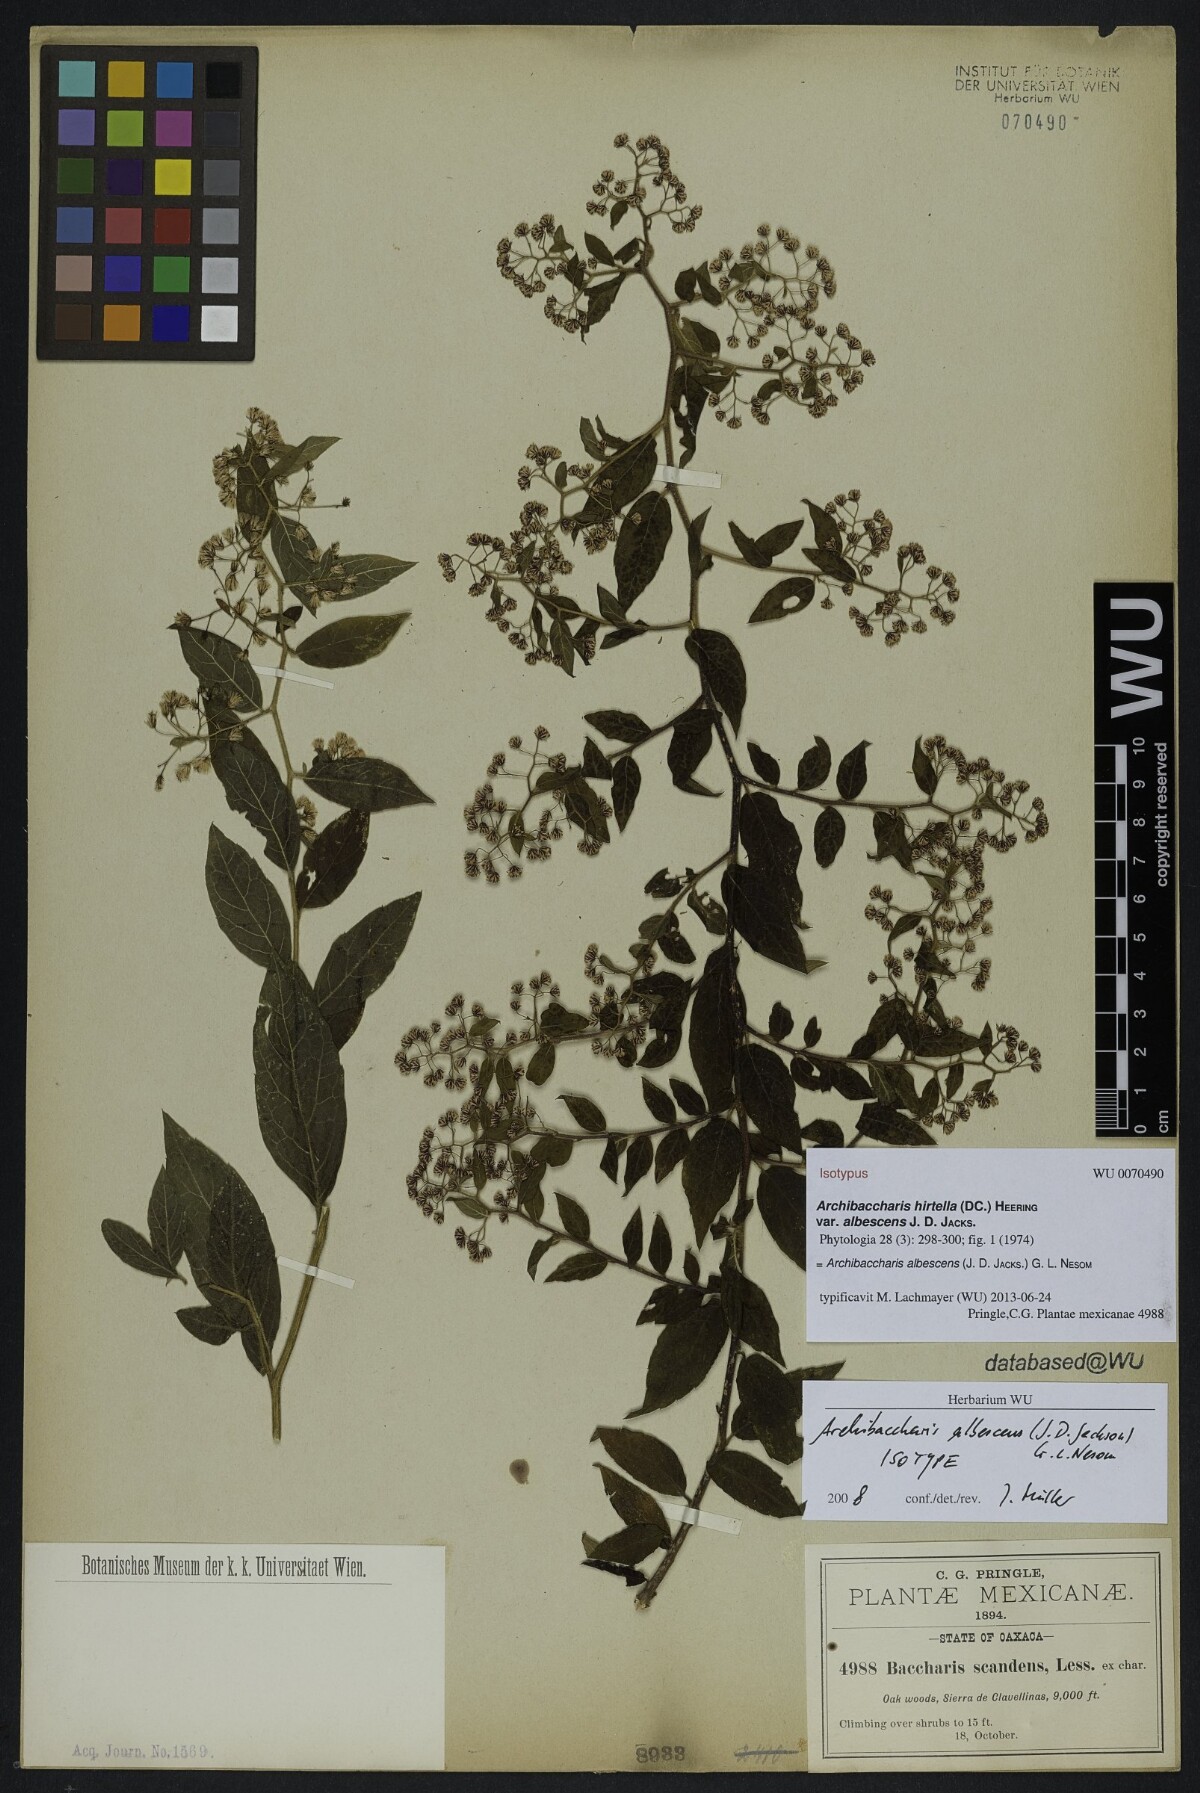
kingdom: Plantae
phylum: Tracheophyta
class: Magnoliopsida
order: Asterales
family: Asteraceae
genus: Archibaccharis
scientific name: Archibaccharis albescens
